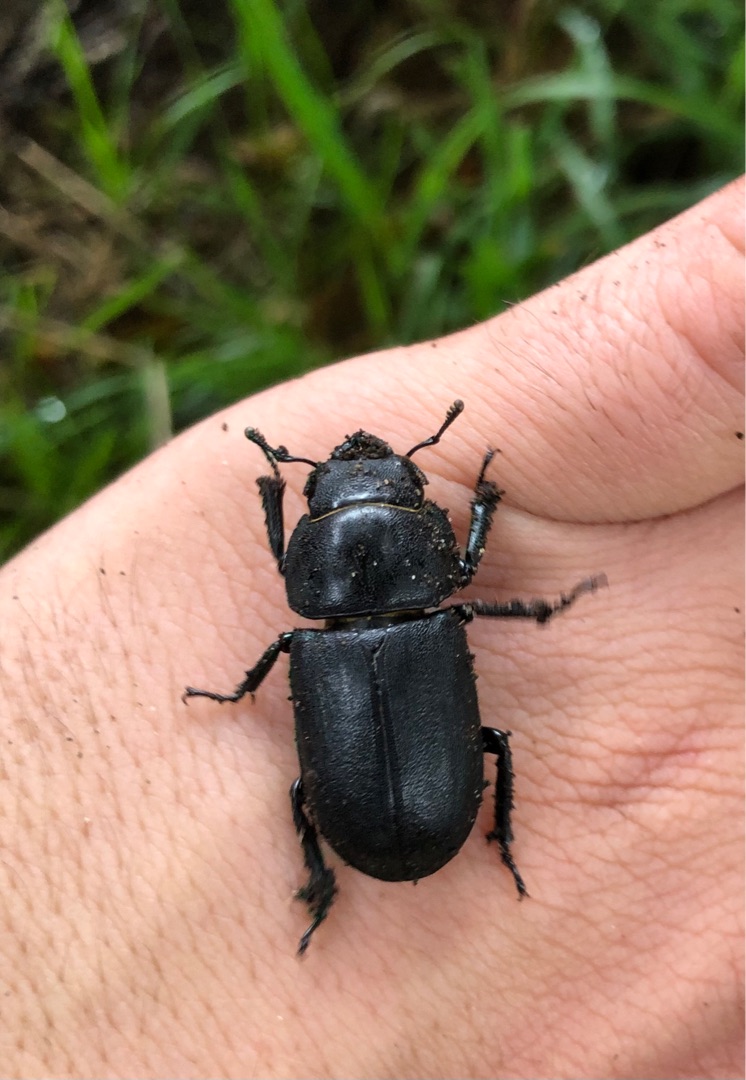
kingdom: Animalia
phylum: Arthropoda
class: Insecta
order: Coleoptera
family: Lucanidae
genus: Dorcus
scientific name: Dorcus parallelipipedus
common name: Bøghjort
